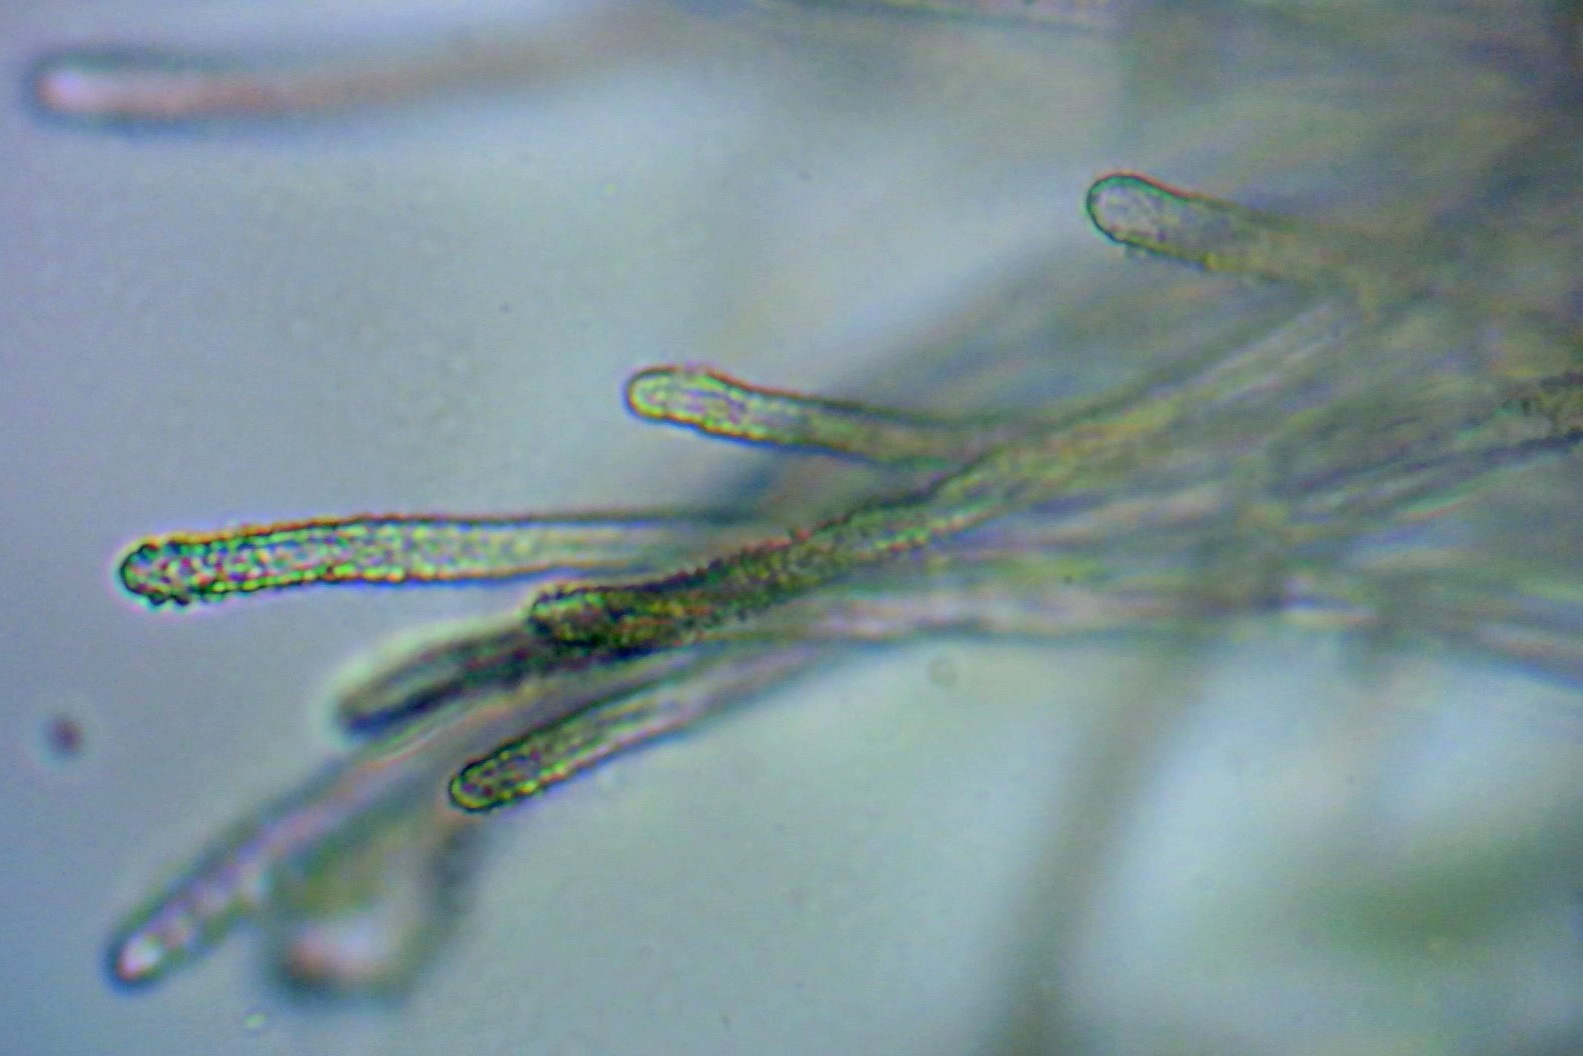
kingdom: Fungi
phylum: Basidiomycota
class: Agaricomycetes
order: Agaricales
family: Niaceae
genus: Lachnella
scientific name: Lachnella alboviolascens
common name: grå frynserede
